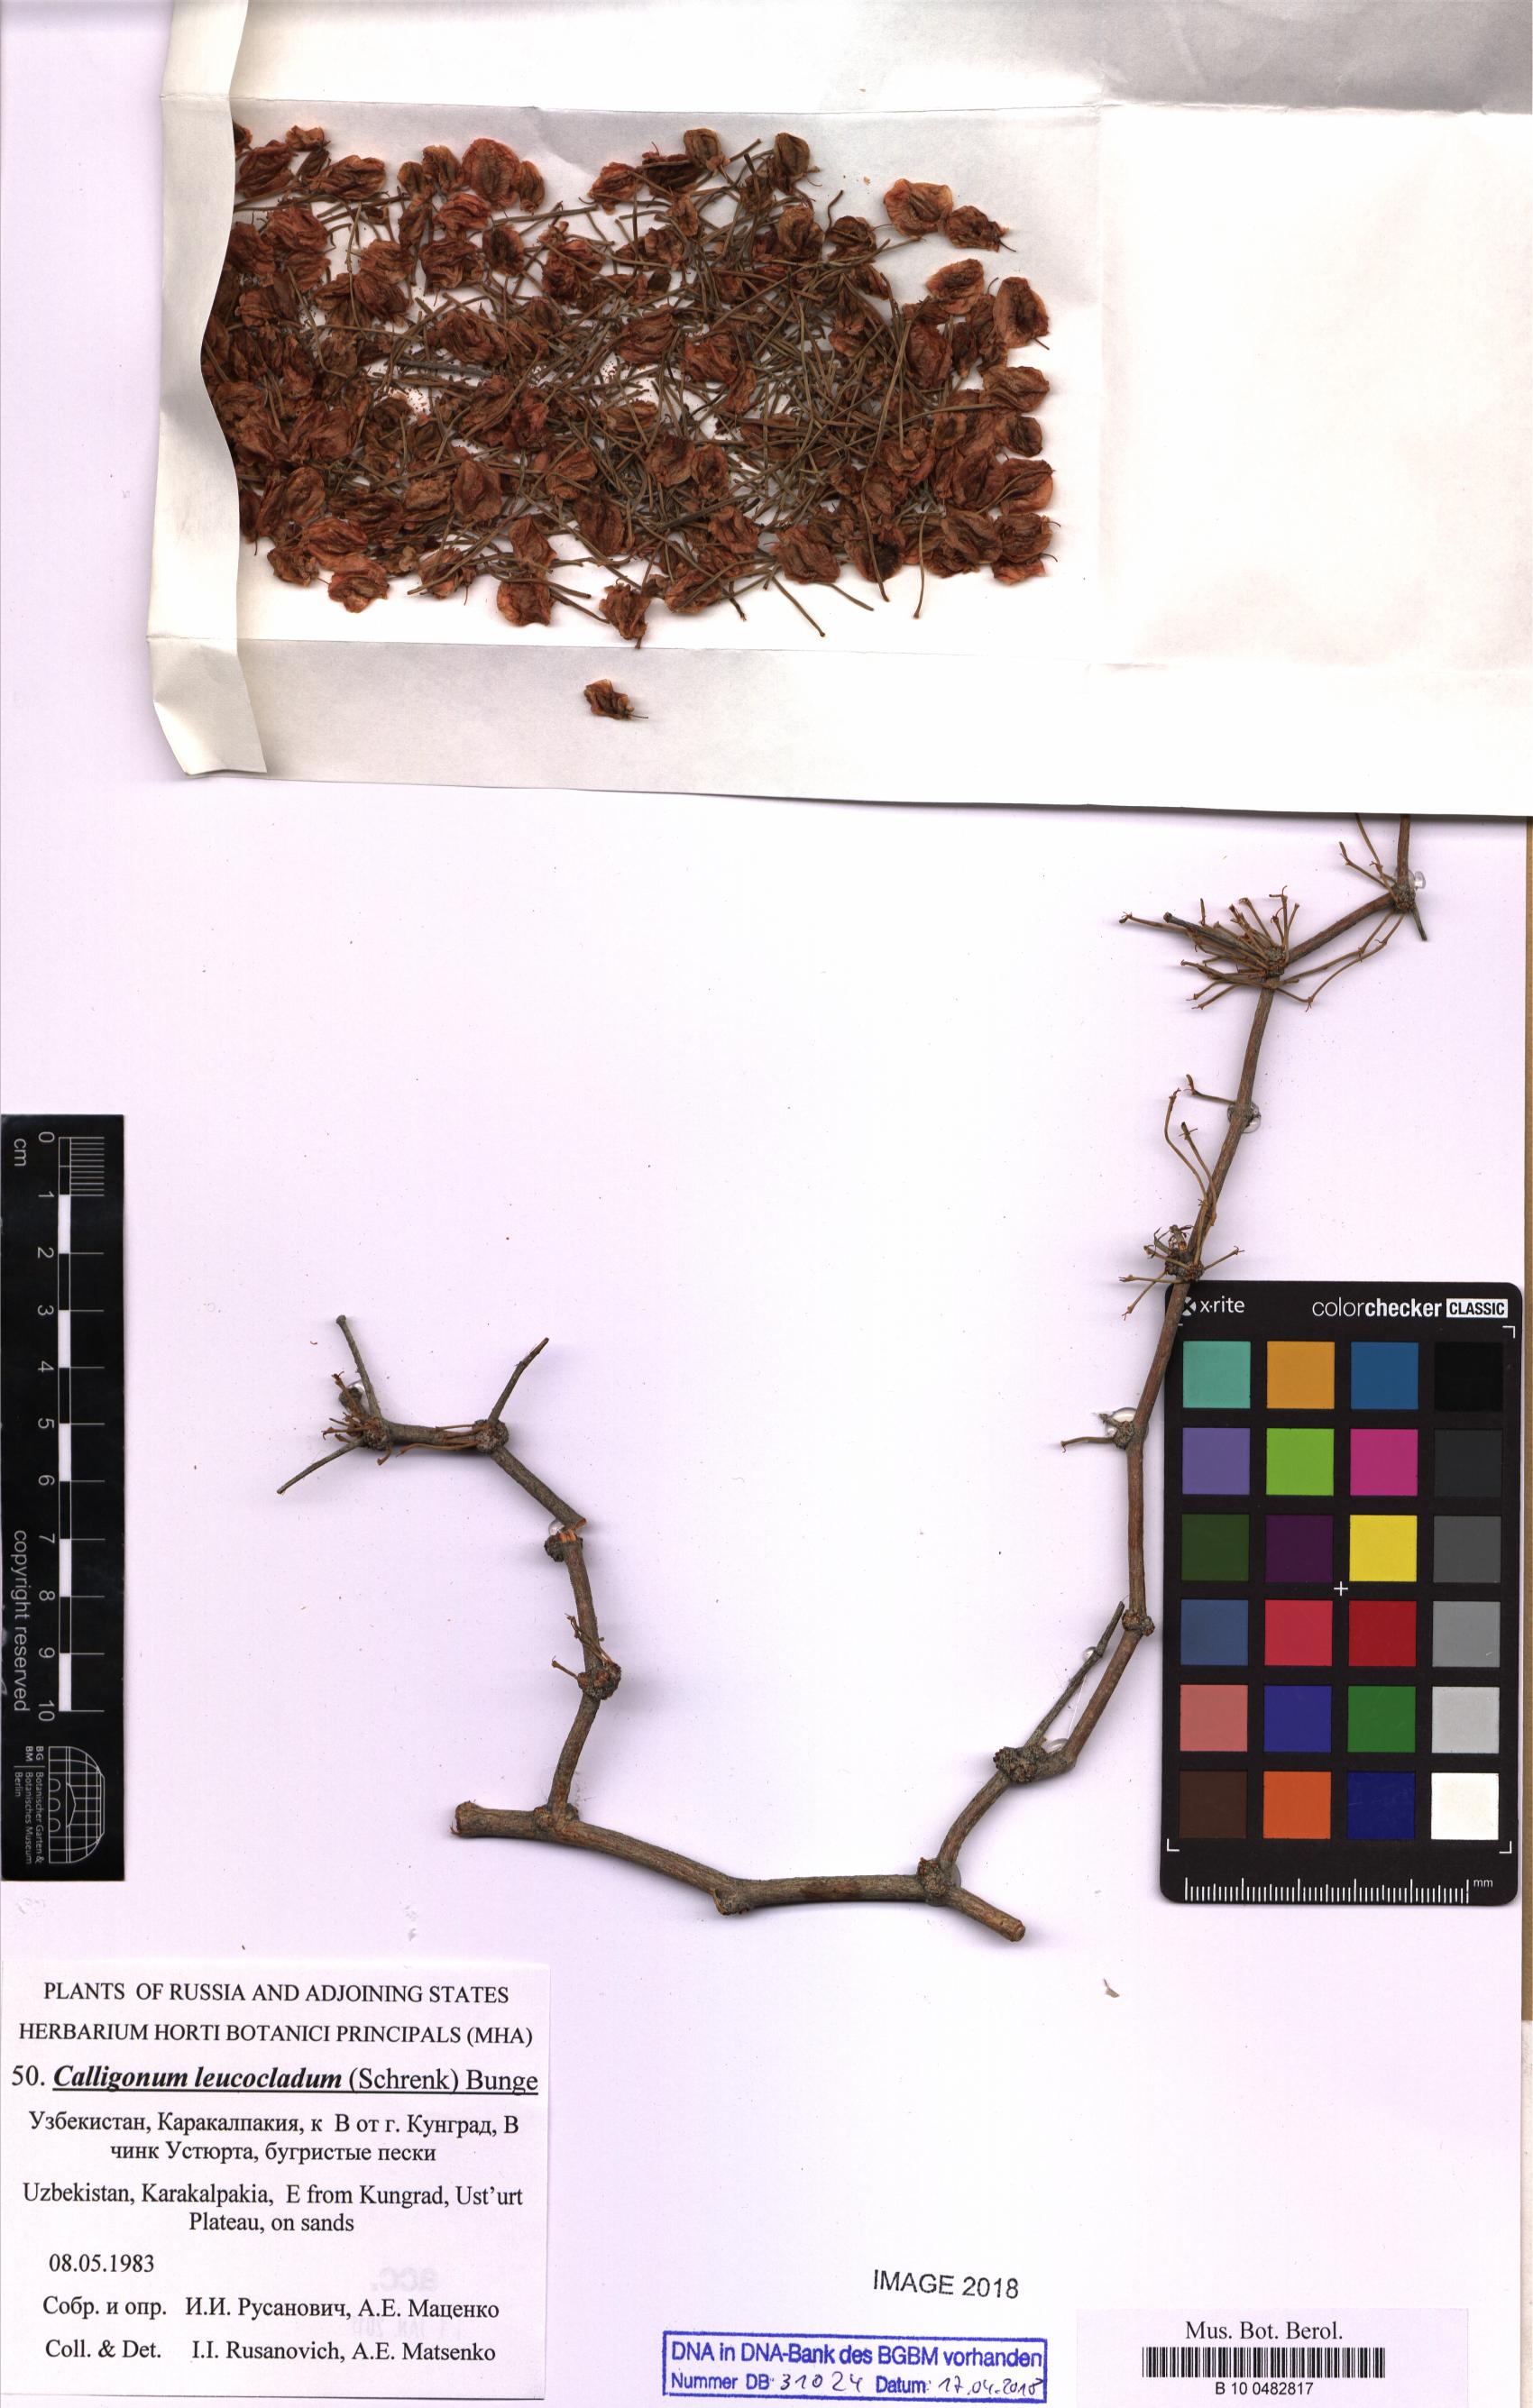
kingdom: Plantae
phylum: Tracheophyta
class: Magnoliopsida
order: Caryophyllales
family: Polygonaceae
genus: Calligonum
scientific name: Calligonum leucocladum
